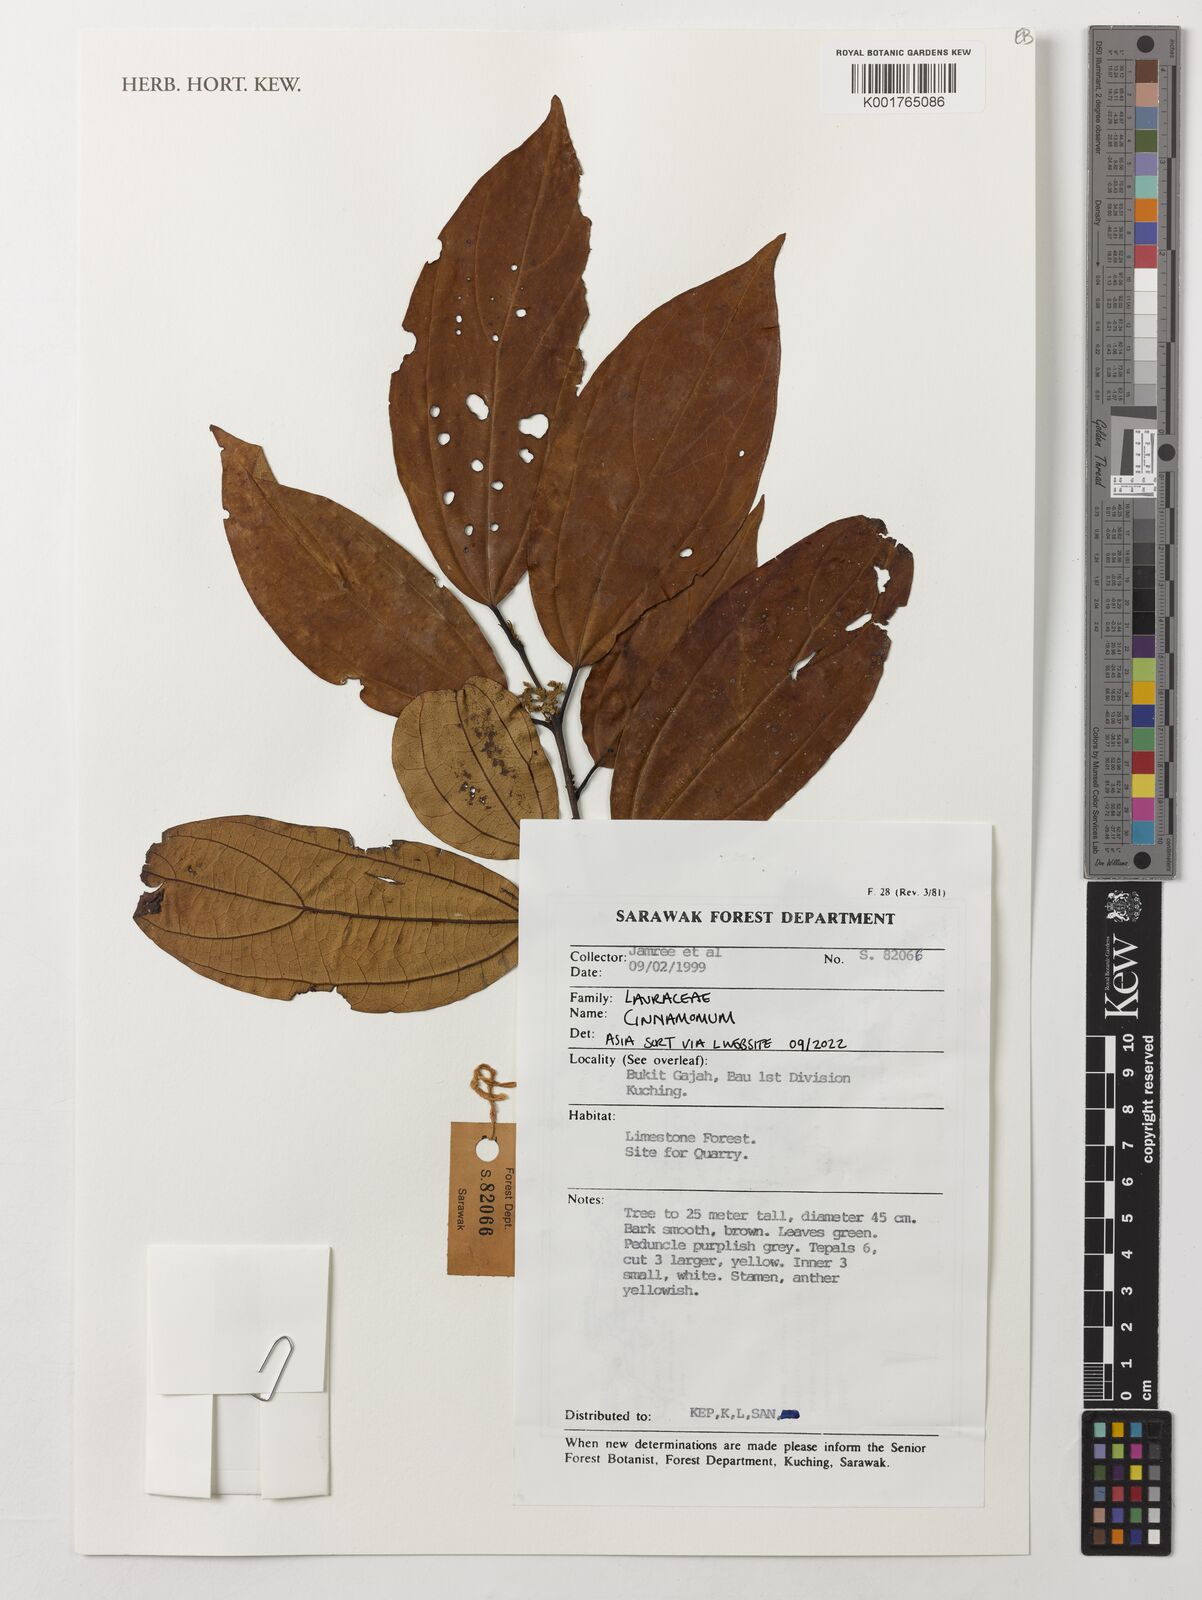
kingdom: Plantae
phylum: Tracheophyta
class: Magnoliopsida
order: Laurales
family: Lauraceae
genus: Cinnamomum
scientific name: Cinnamomum
